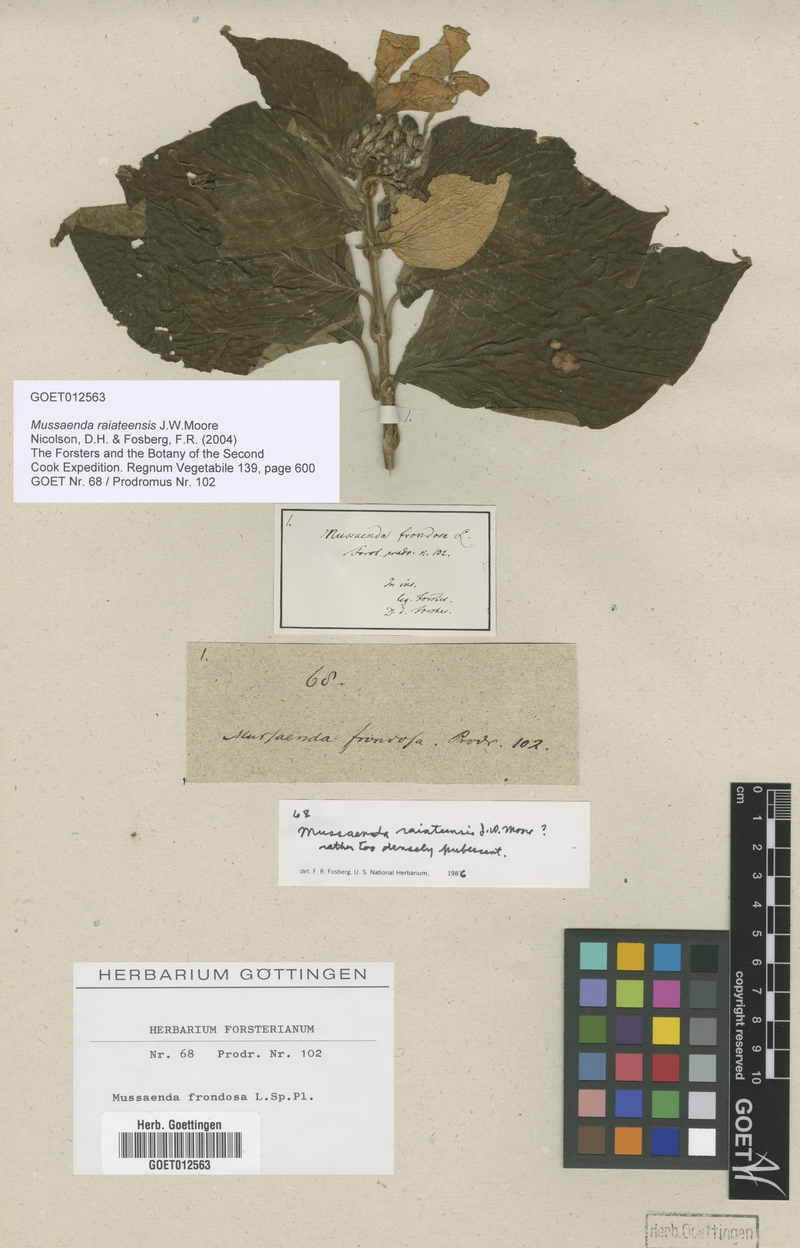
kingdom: Plantae
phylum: Tracheophyta
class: Magnoliopsida
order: Gentianales
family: Rubiaceae
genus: Mussaenda
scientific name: Mussaenda raiateensis
